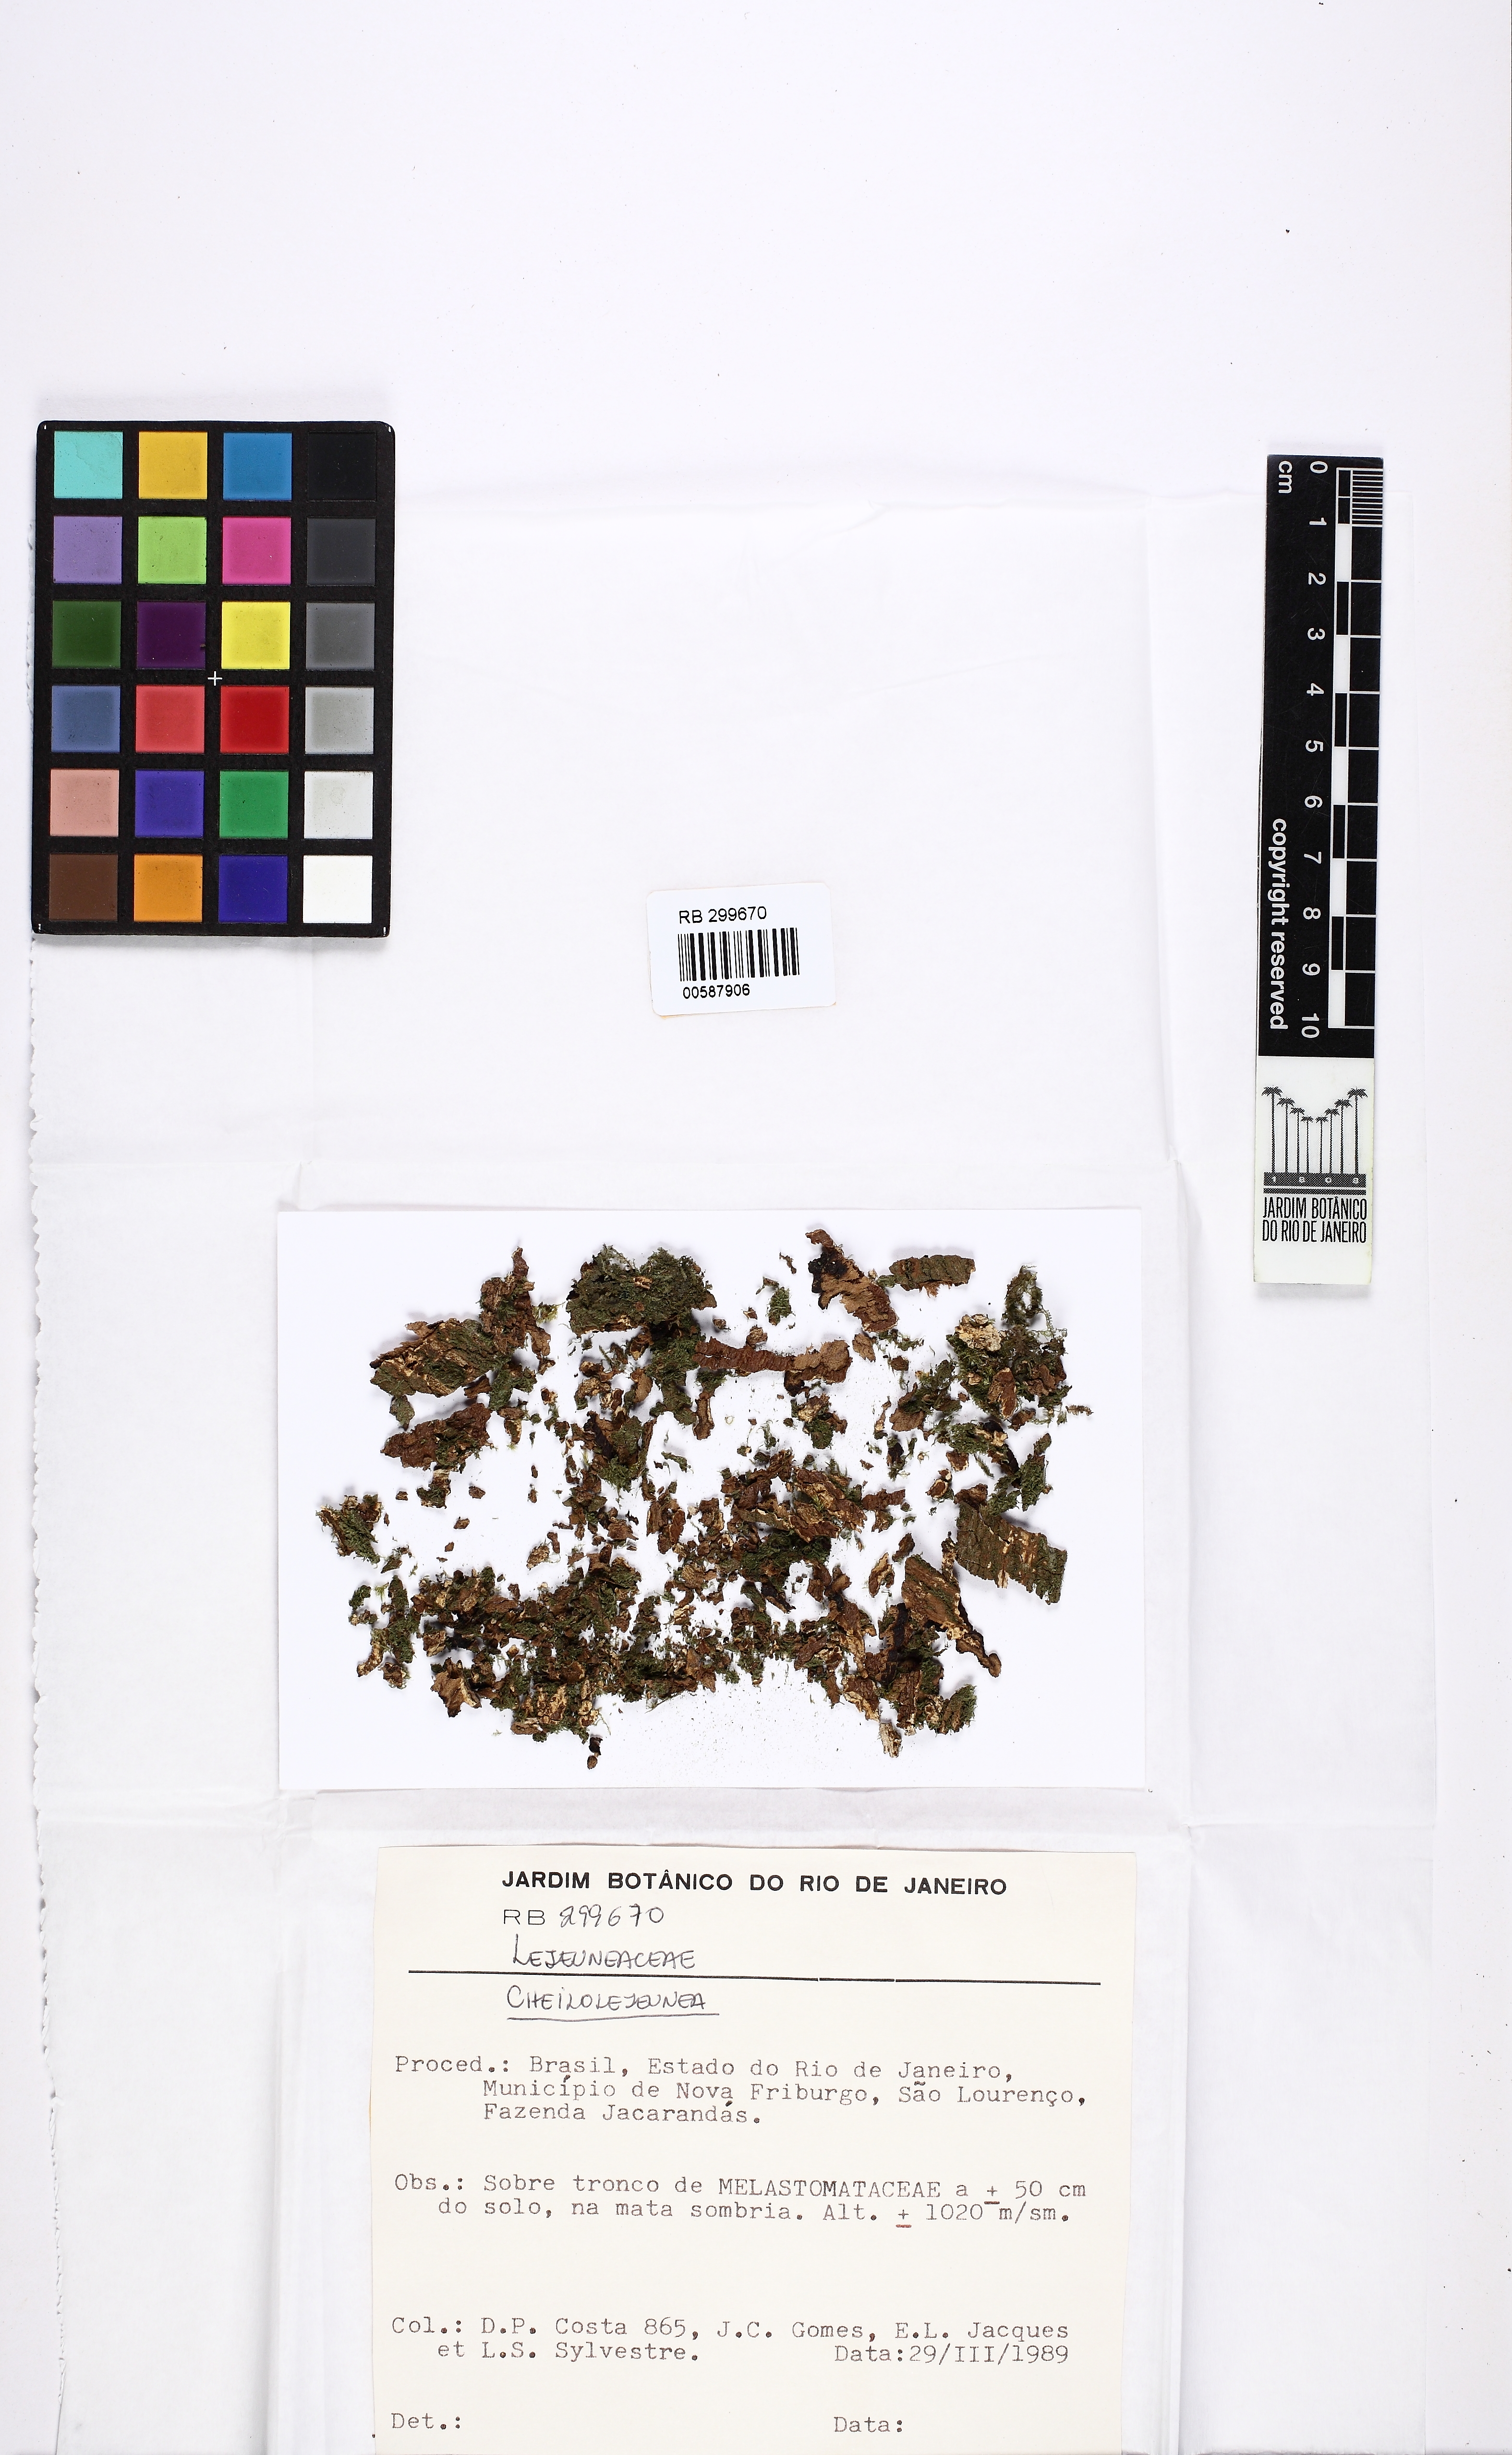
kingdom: Plantae
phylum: Marchantiophyta
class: Jungermanniopsida
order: Porellales
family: Lejeuneaceae
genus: Cheilolejeunea
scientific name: Cheilolejeunea
